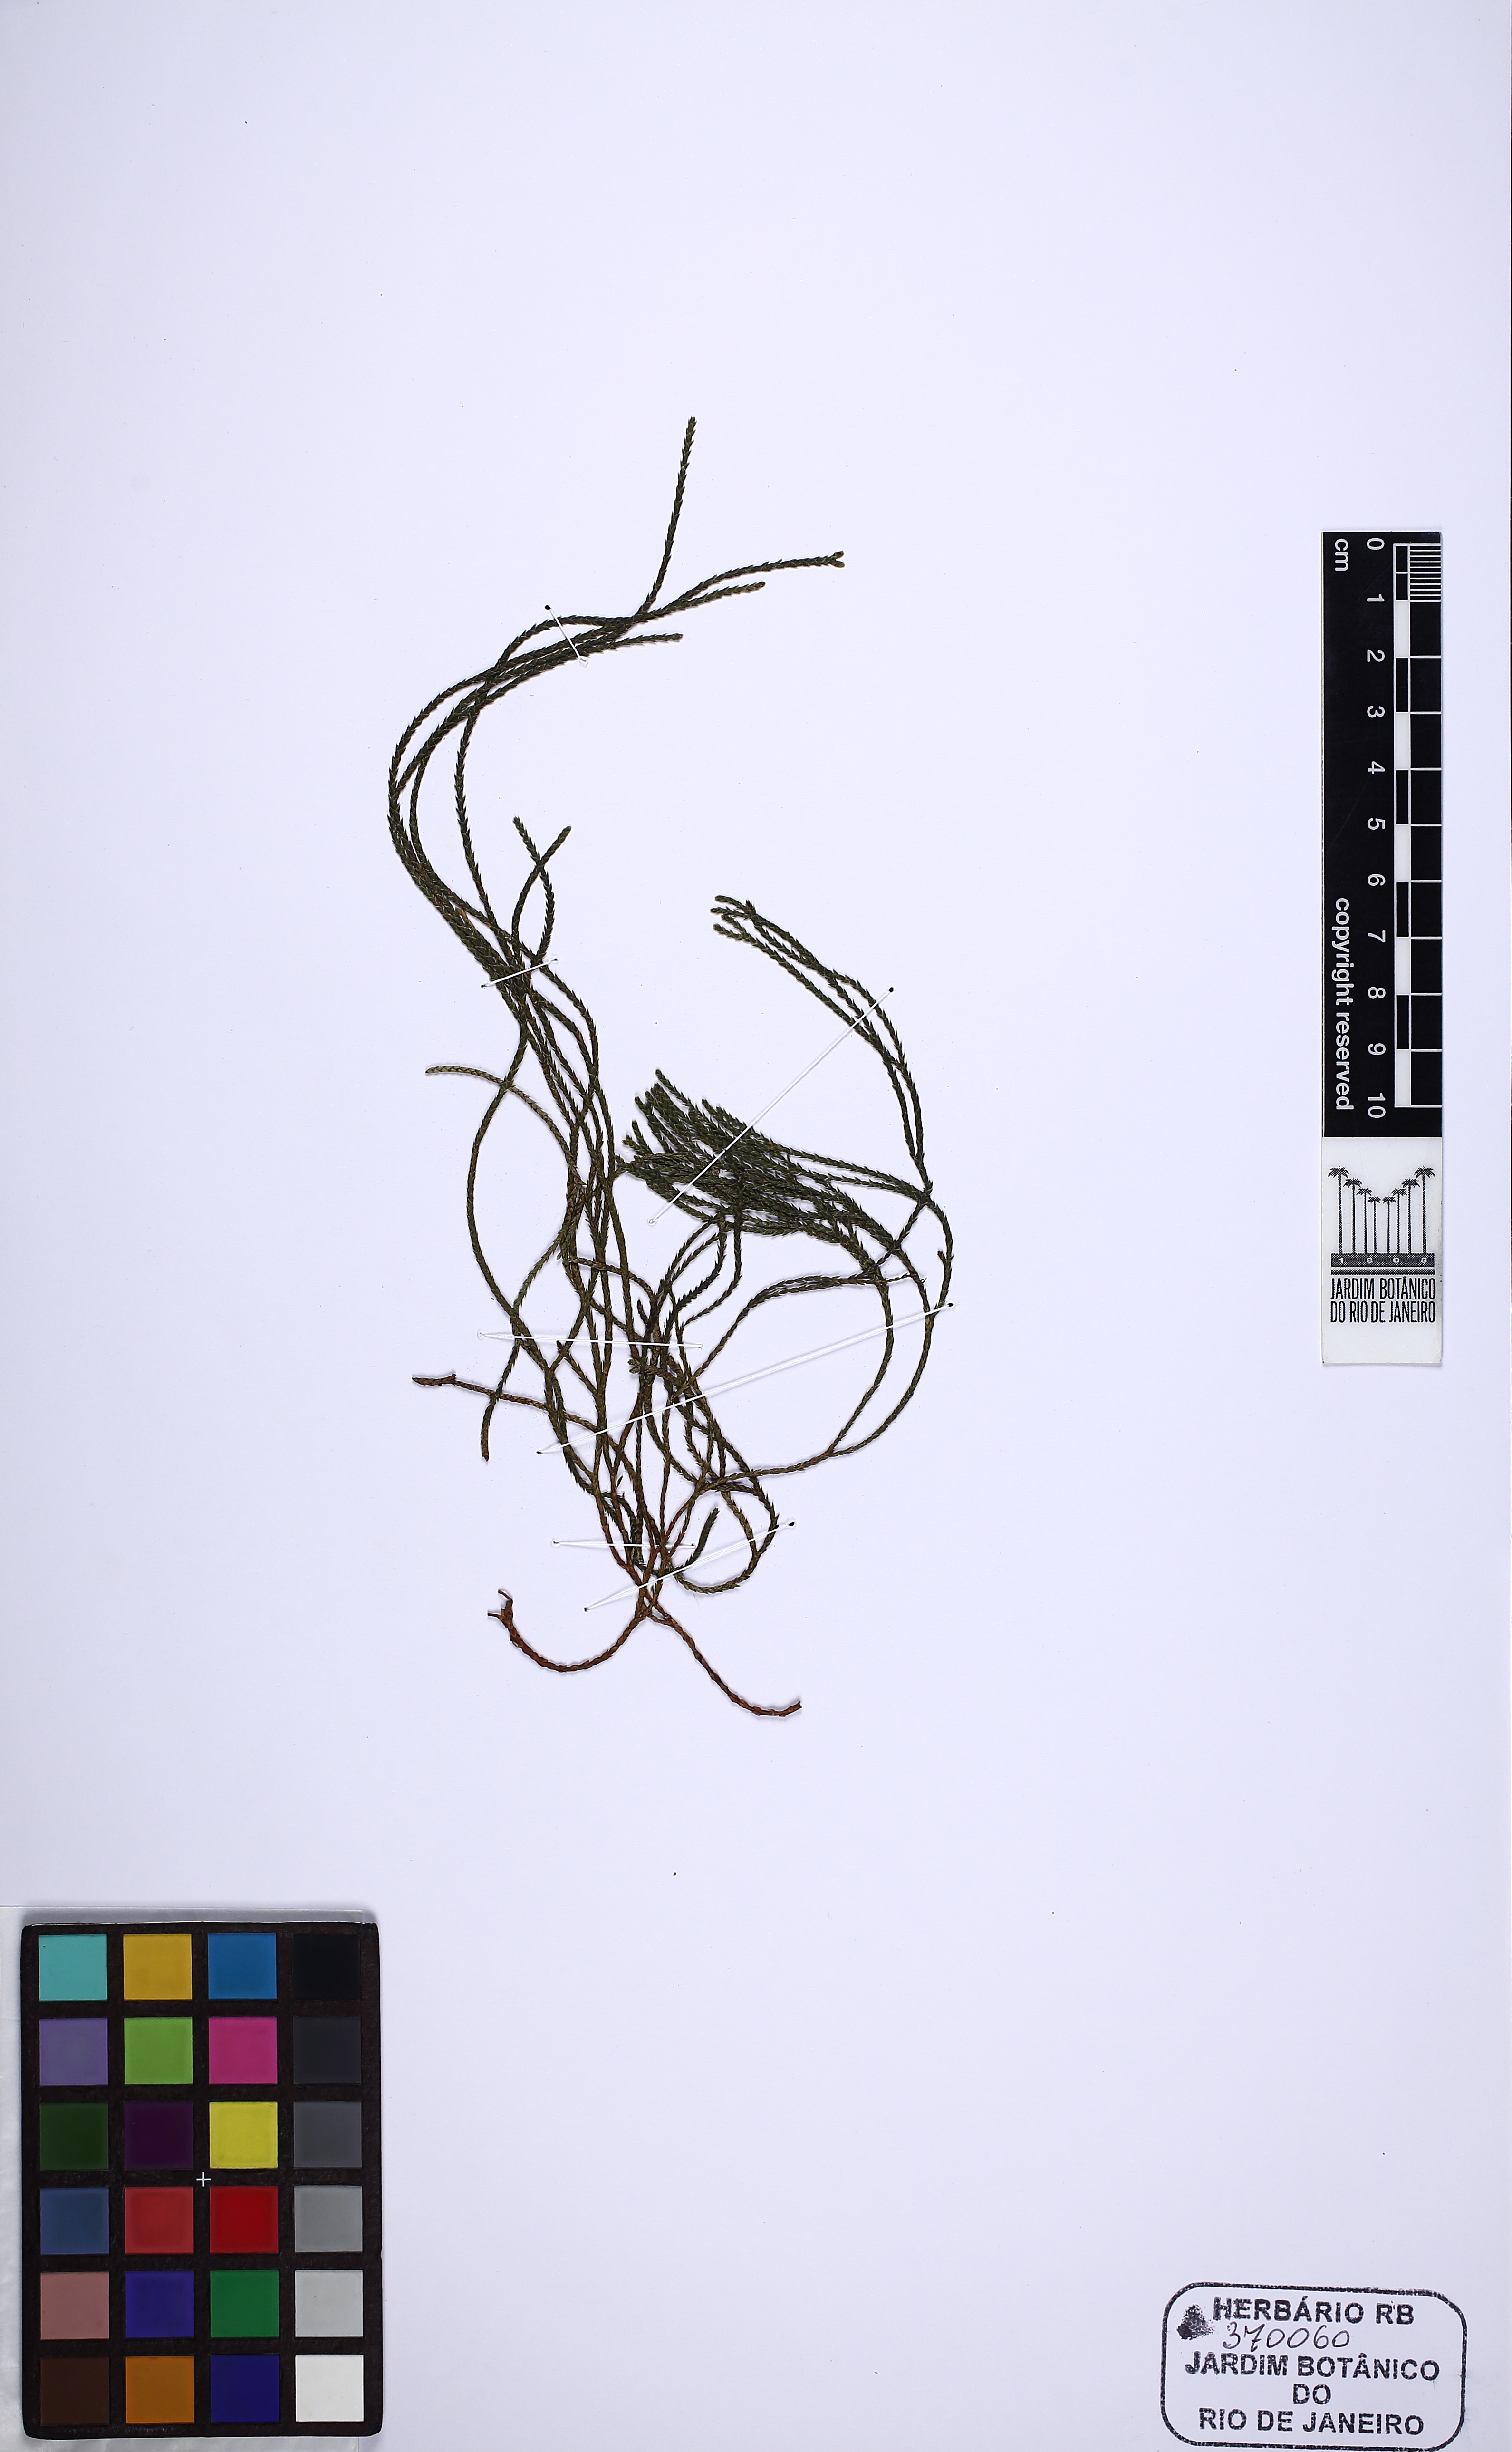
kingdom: Plantae
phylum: Tracheophyta
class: Lycopodiopsida
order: Lycopodiales
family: Lycopodiaceae
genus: Phlegmariurus
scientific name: Phlegmariurus fontinaloides
